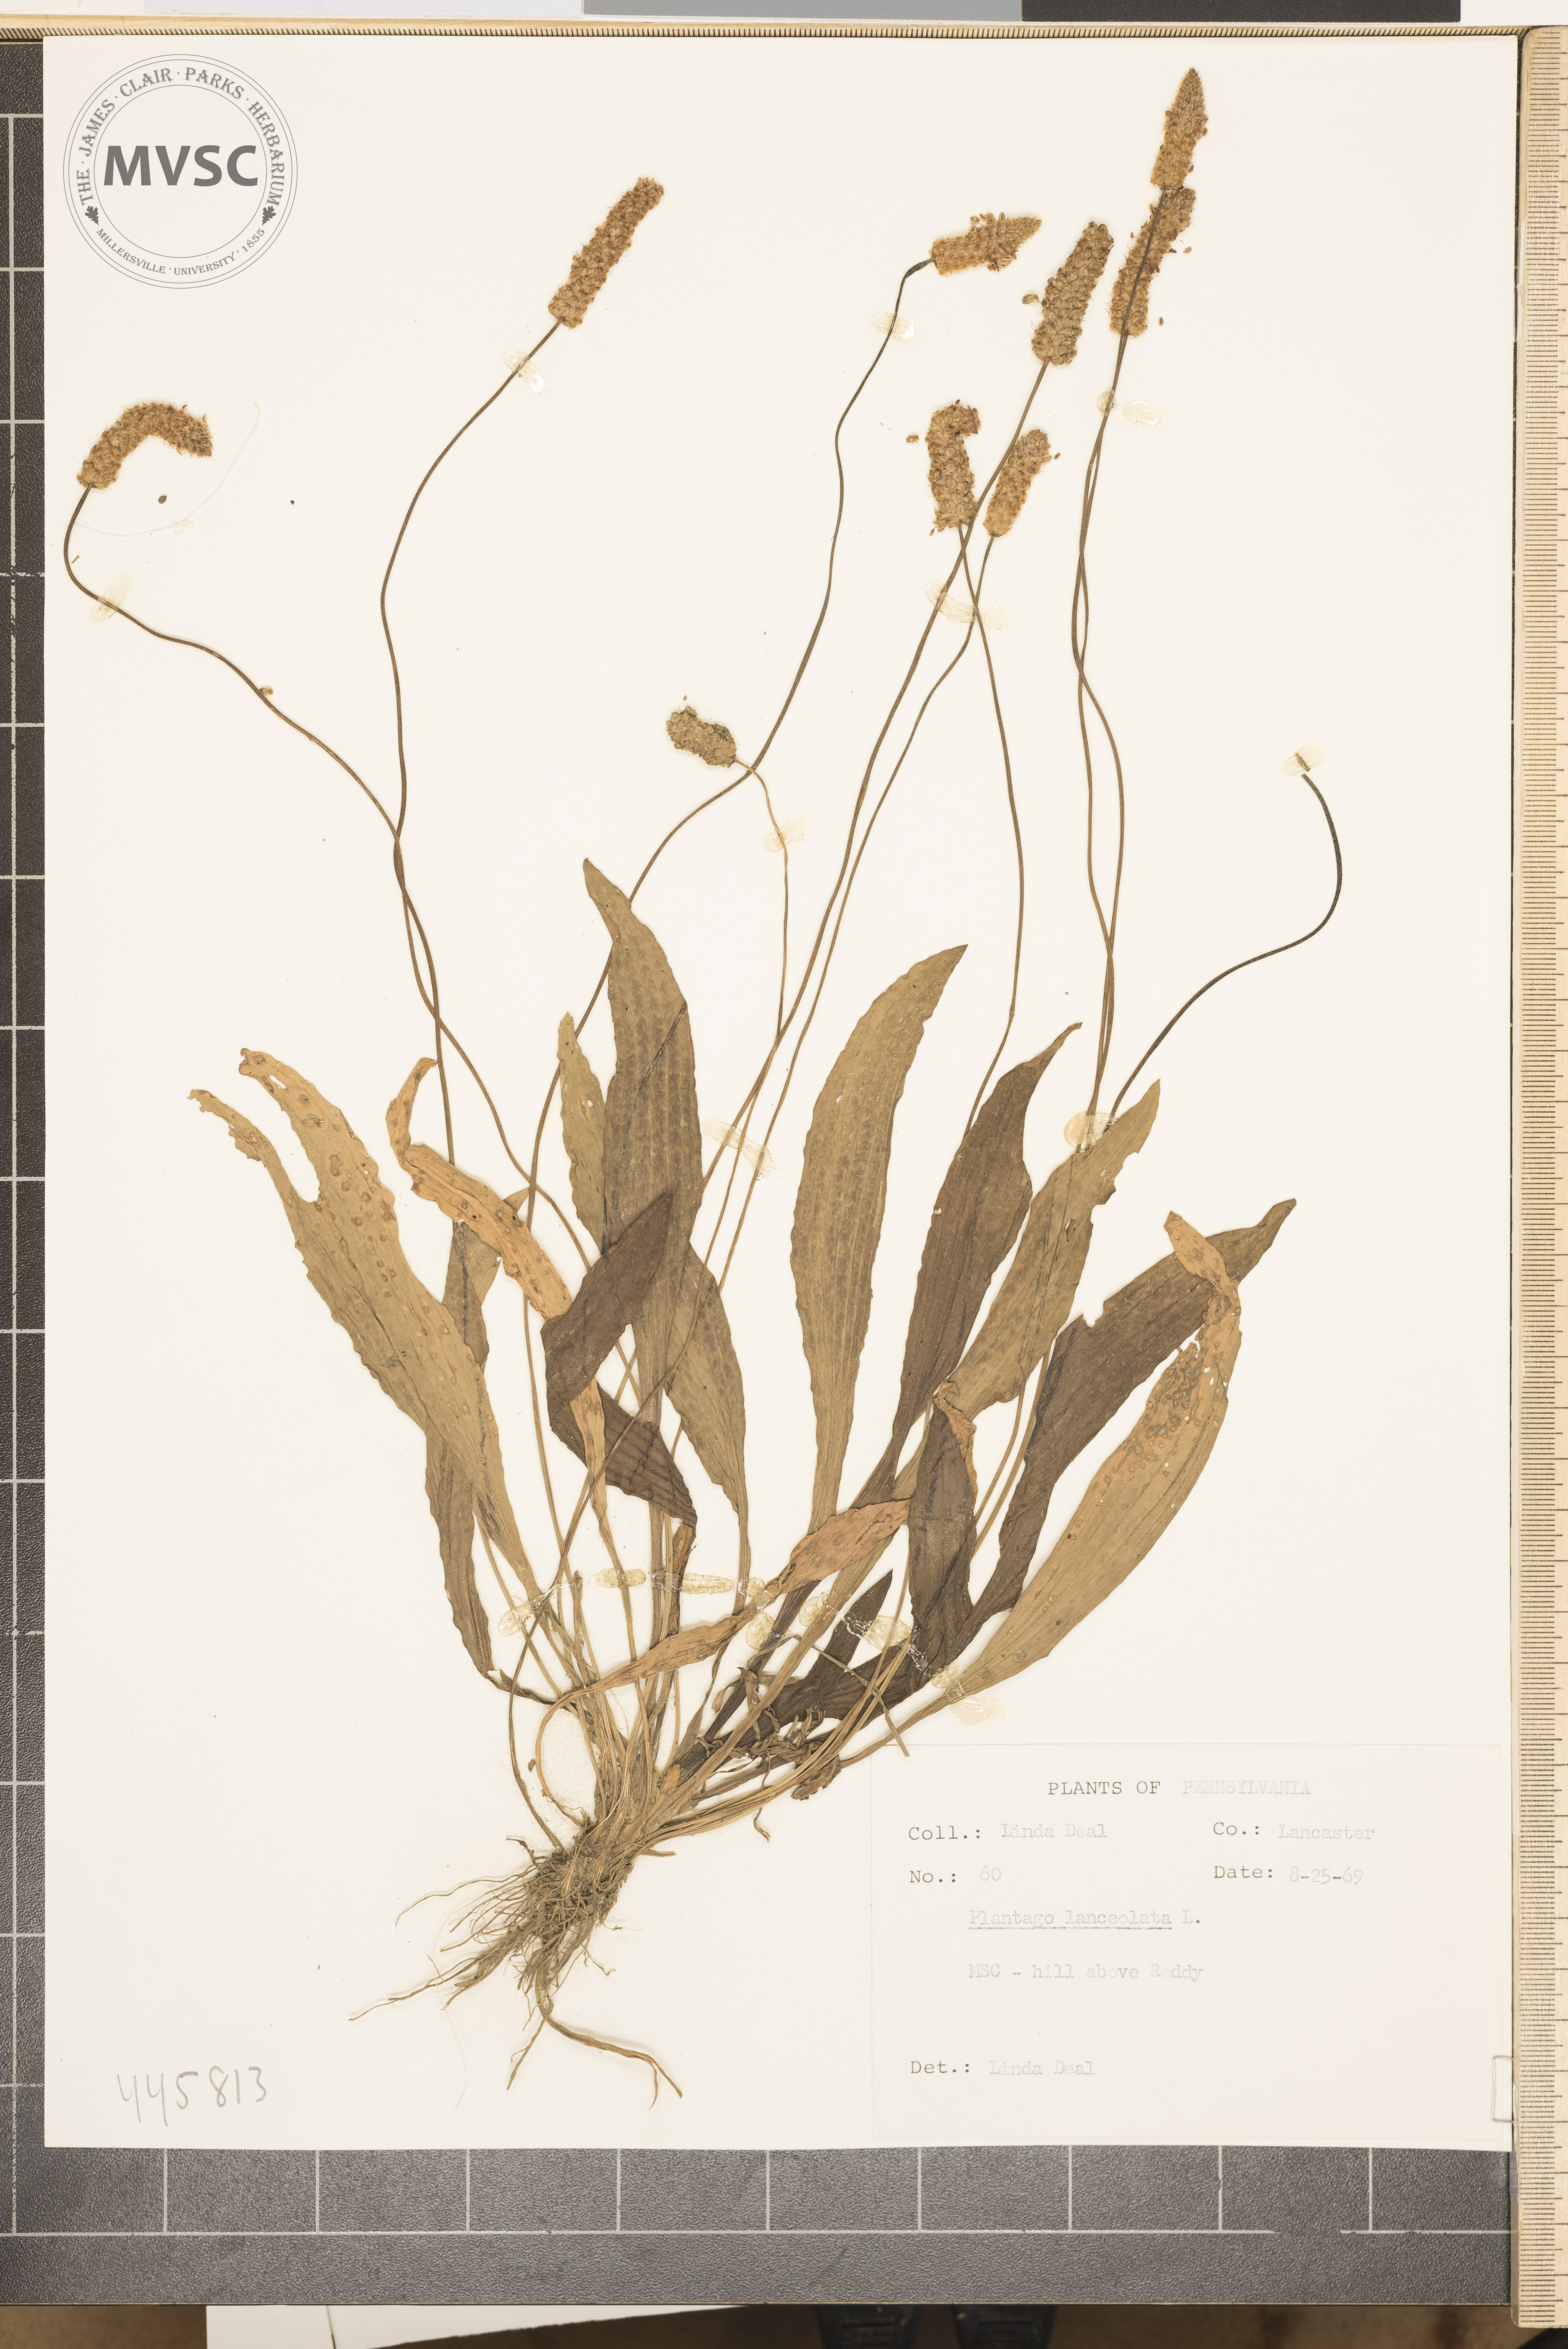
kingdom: Plantae
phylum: Tracheophyta
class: Magnoliopsida
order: Lamiales
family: Plantaginaceae
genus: Plantago
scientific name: Plantago lanceolata
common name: Ribwort plantain
